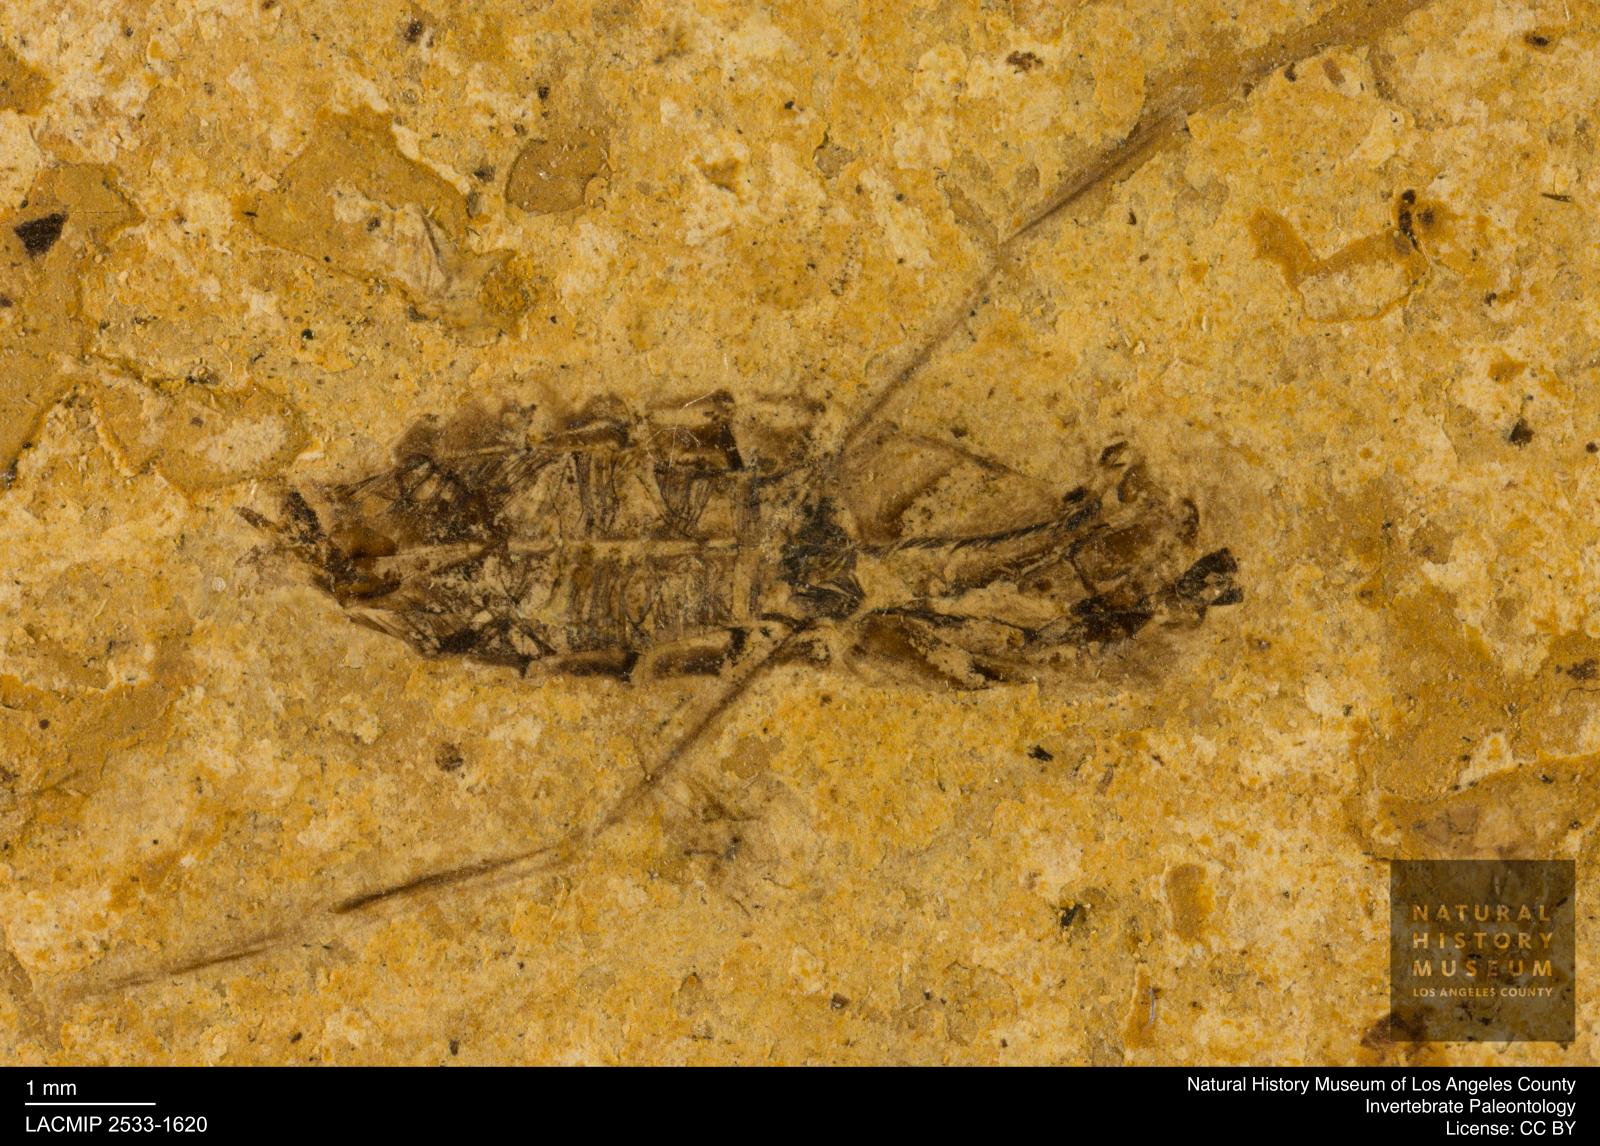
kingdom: Animalia
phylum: Arthropoda
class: Insecta
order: Hemiptera
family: Notonectidae
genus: Notonecta
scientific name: Notonecta
